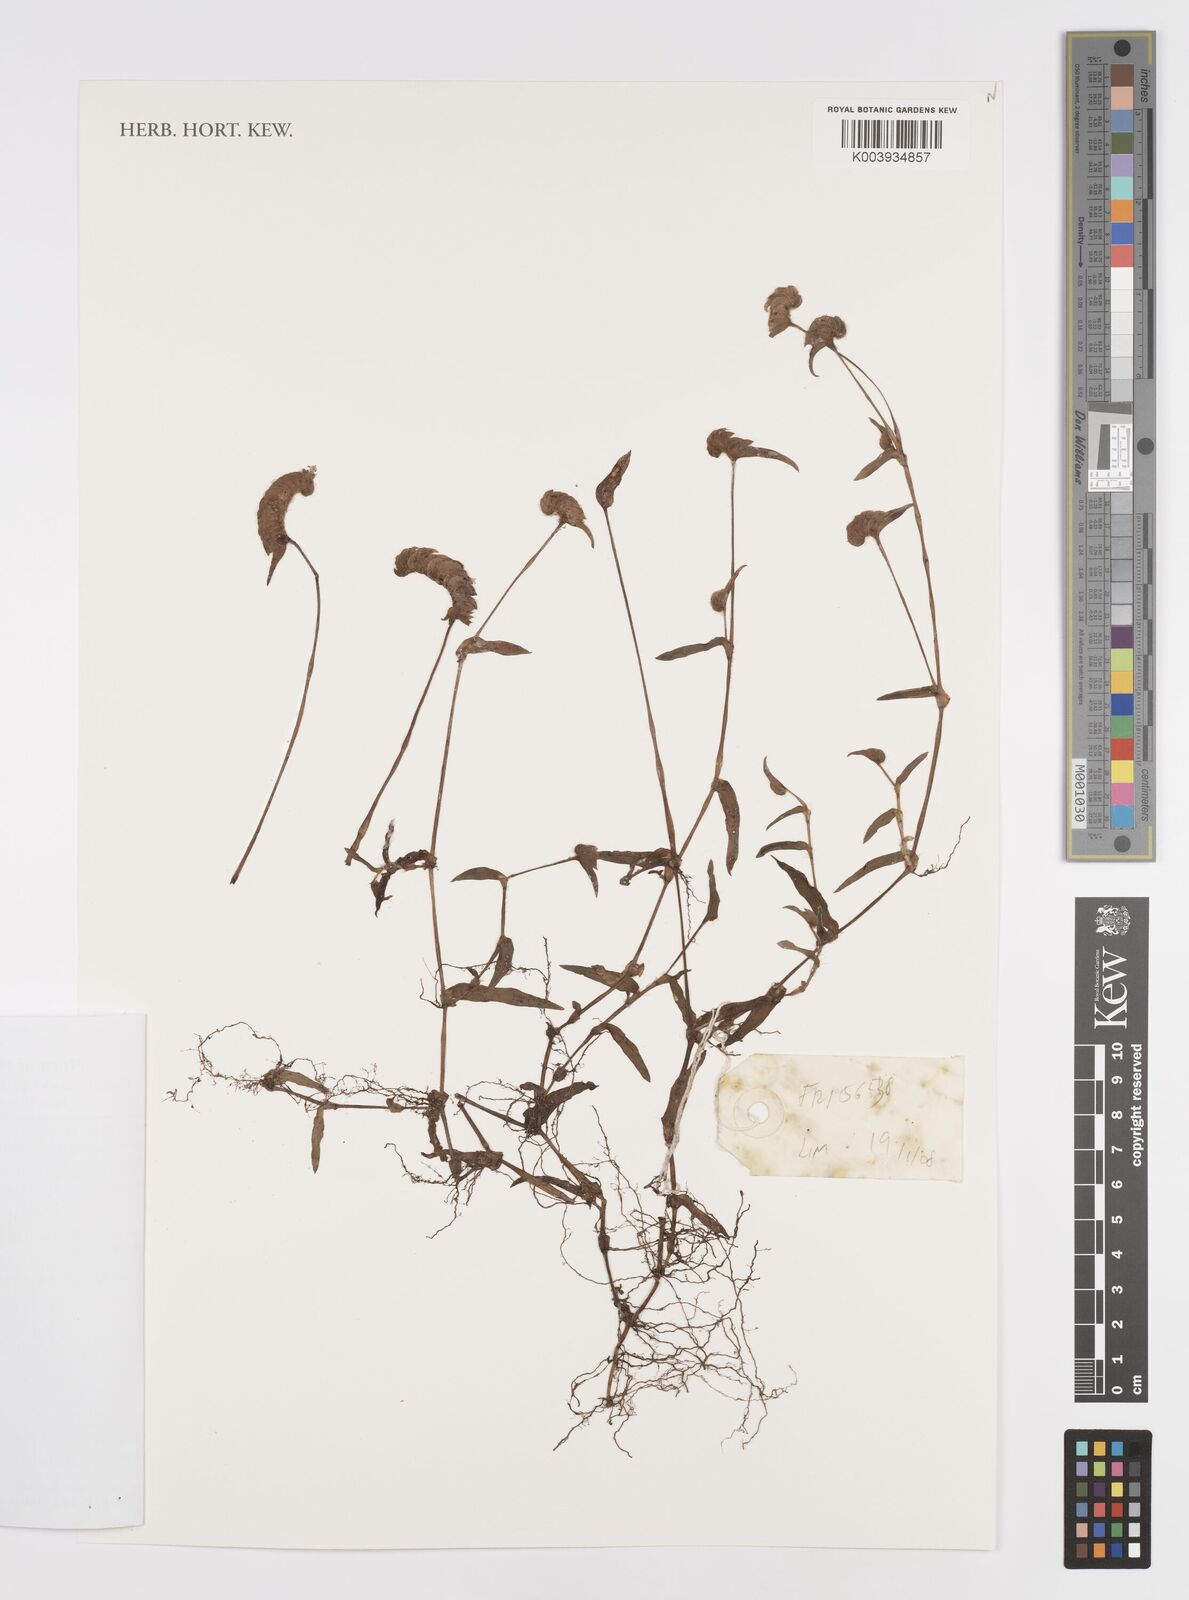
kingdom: Plantae
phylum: Tracheophyta
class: Liliopsida
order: Commelinales
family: Commelinaceae
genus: Cyanotis
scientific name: Cyanotis cristata
